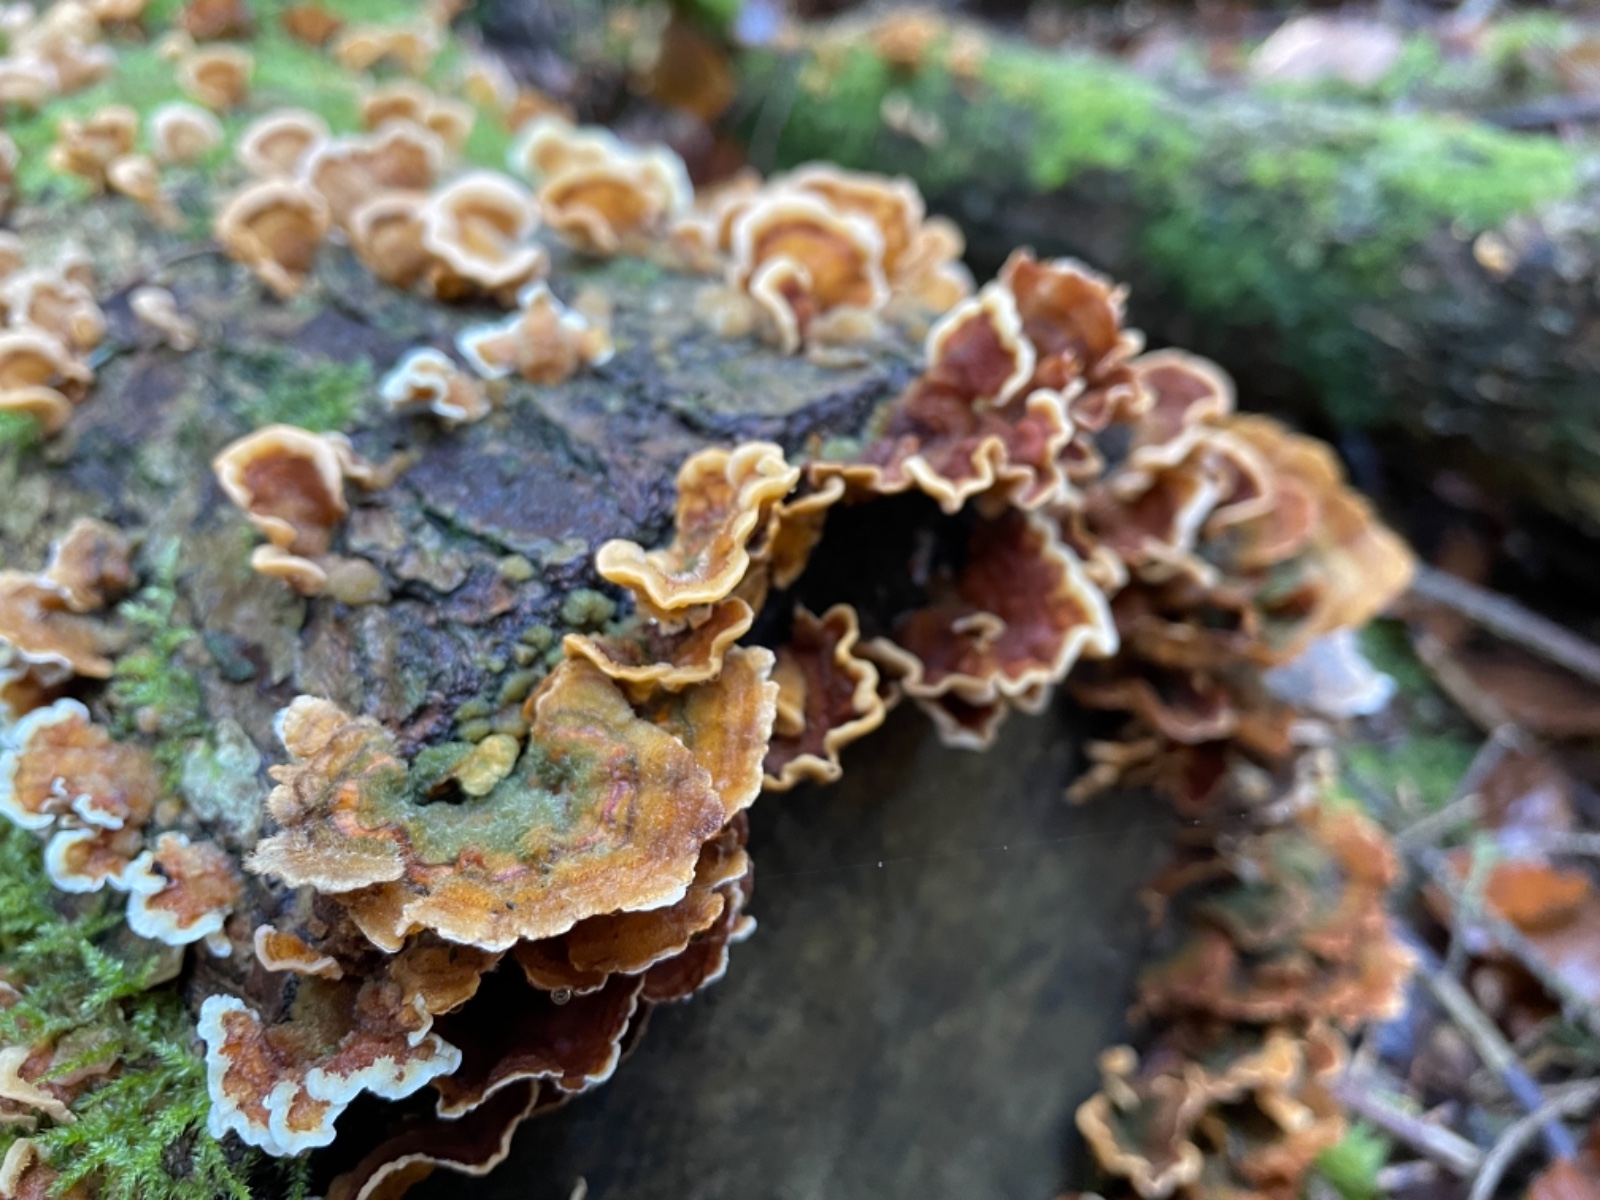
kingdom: Fungi
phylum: Basidiomycota
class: Agaricomycetes
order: Russulales
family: Stereaceae
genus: Stereum
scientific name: Stereum hirsutum
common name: håret lædersvamp
